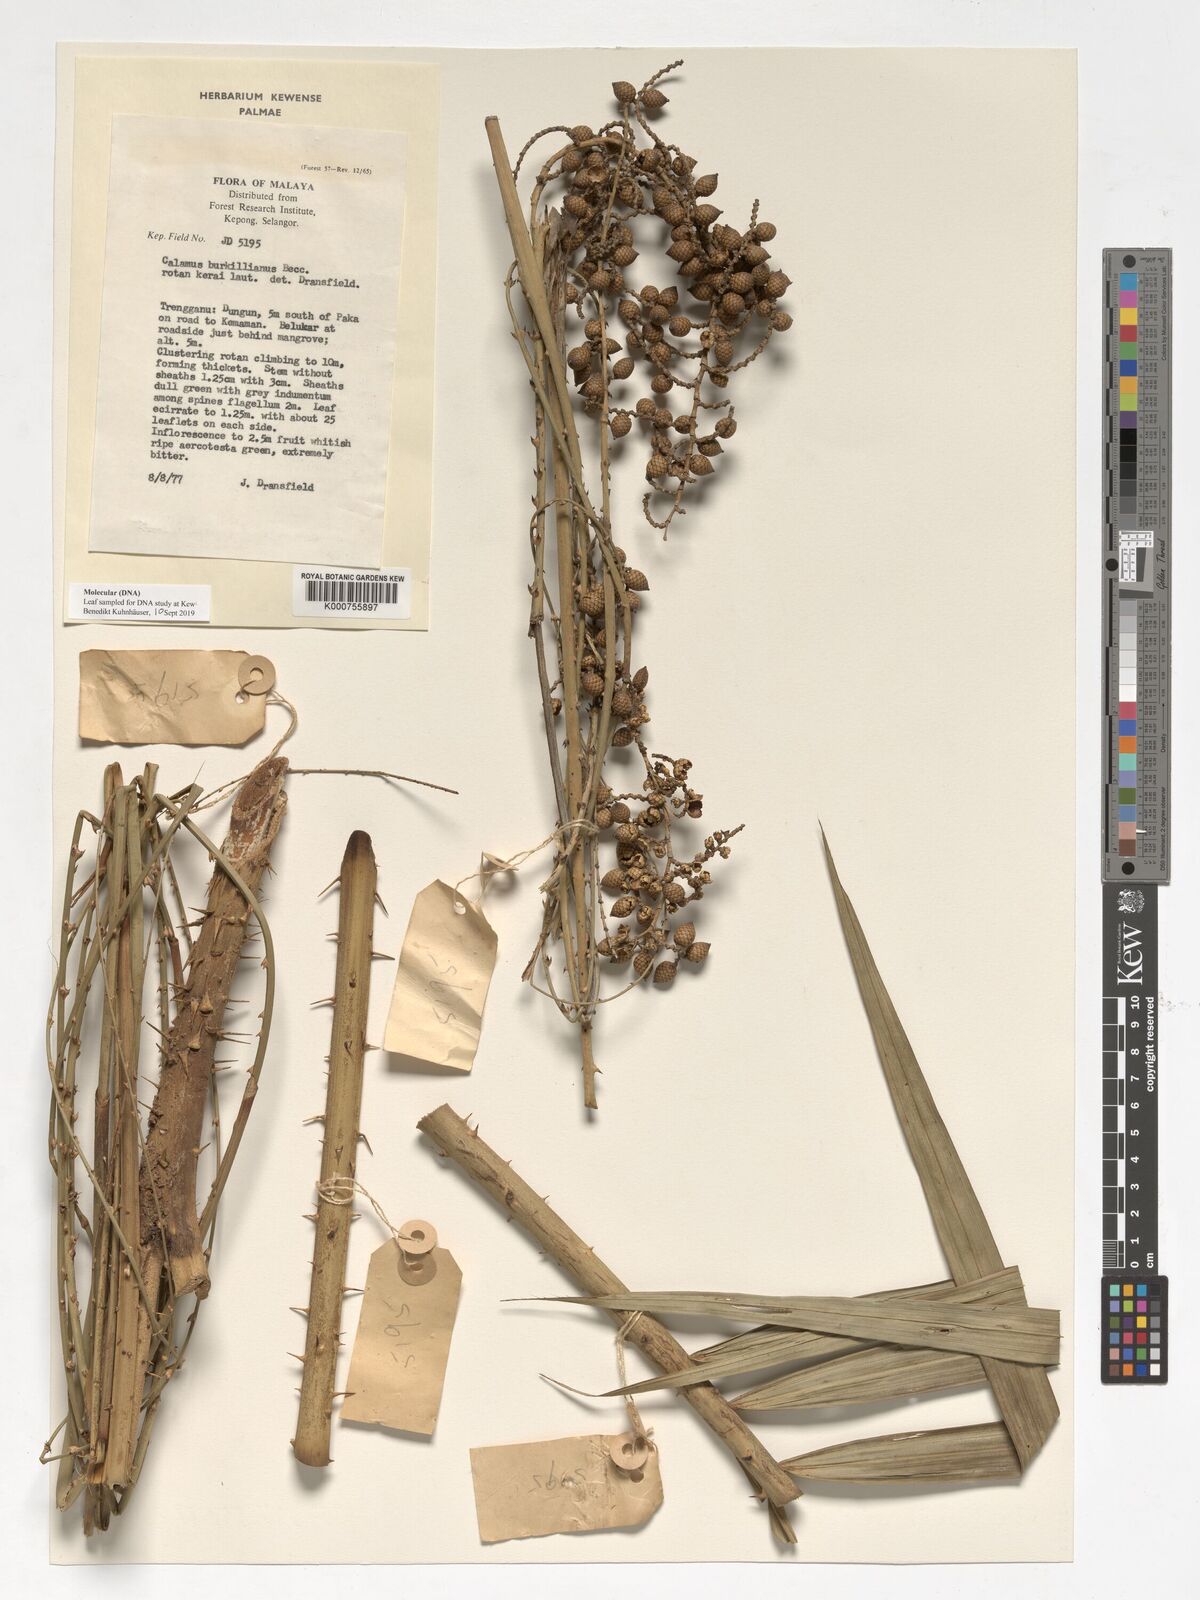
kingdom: Plantae
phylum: Tracheophyta
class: Liliopsida
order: Arecales
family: Arecaceae
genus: Calamus
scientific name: Calamus burkillianus
